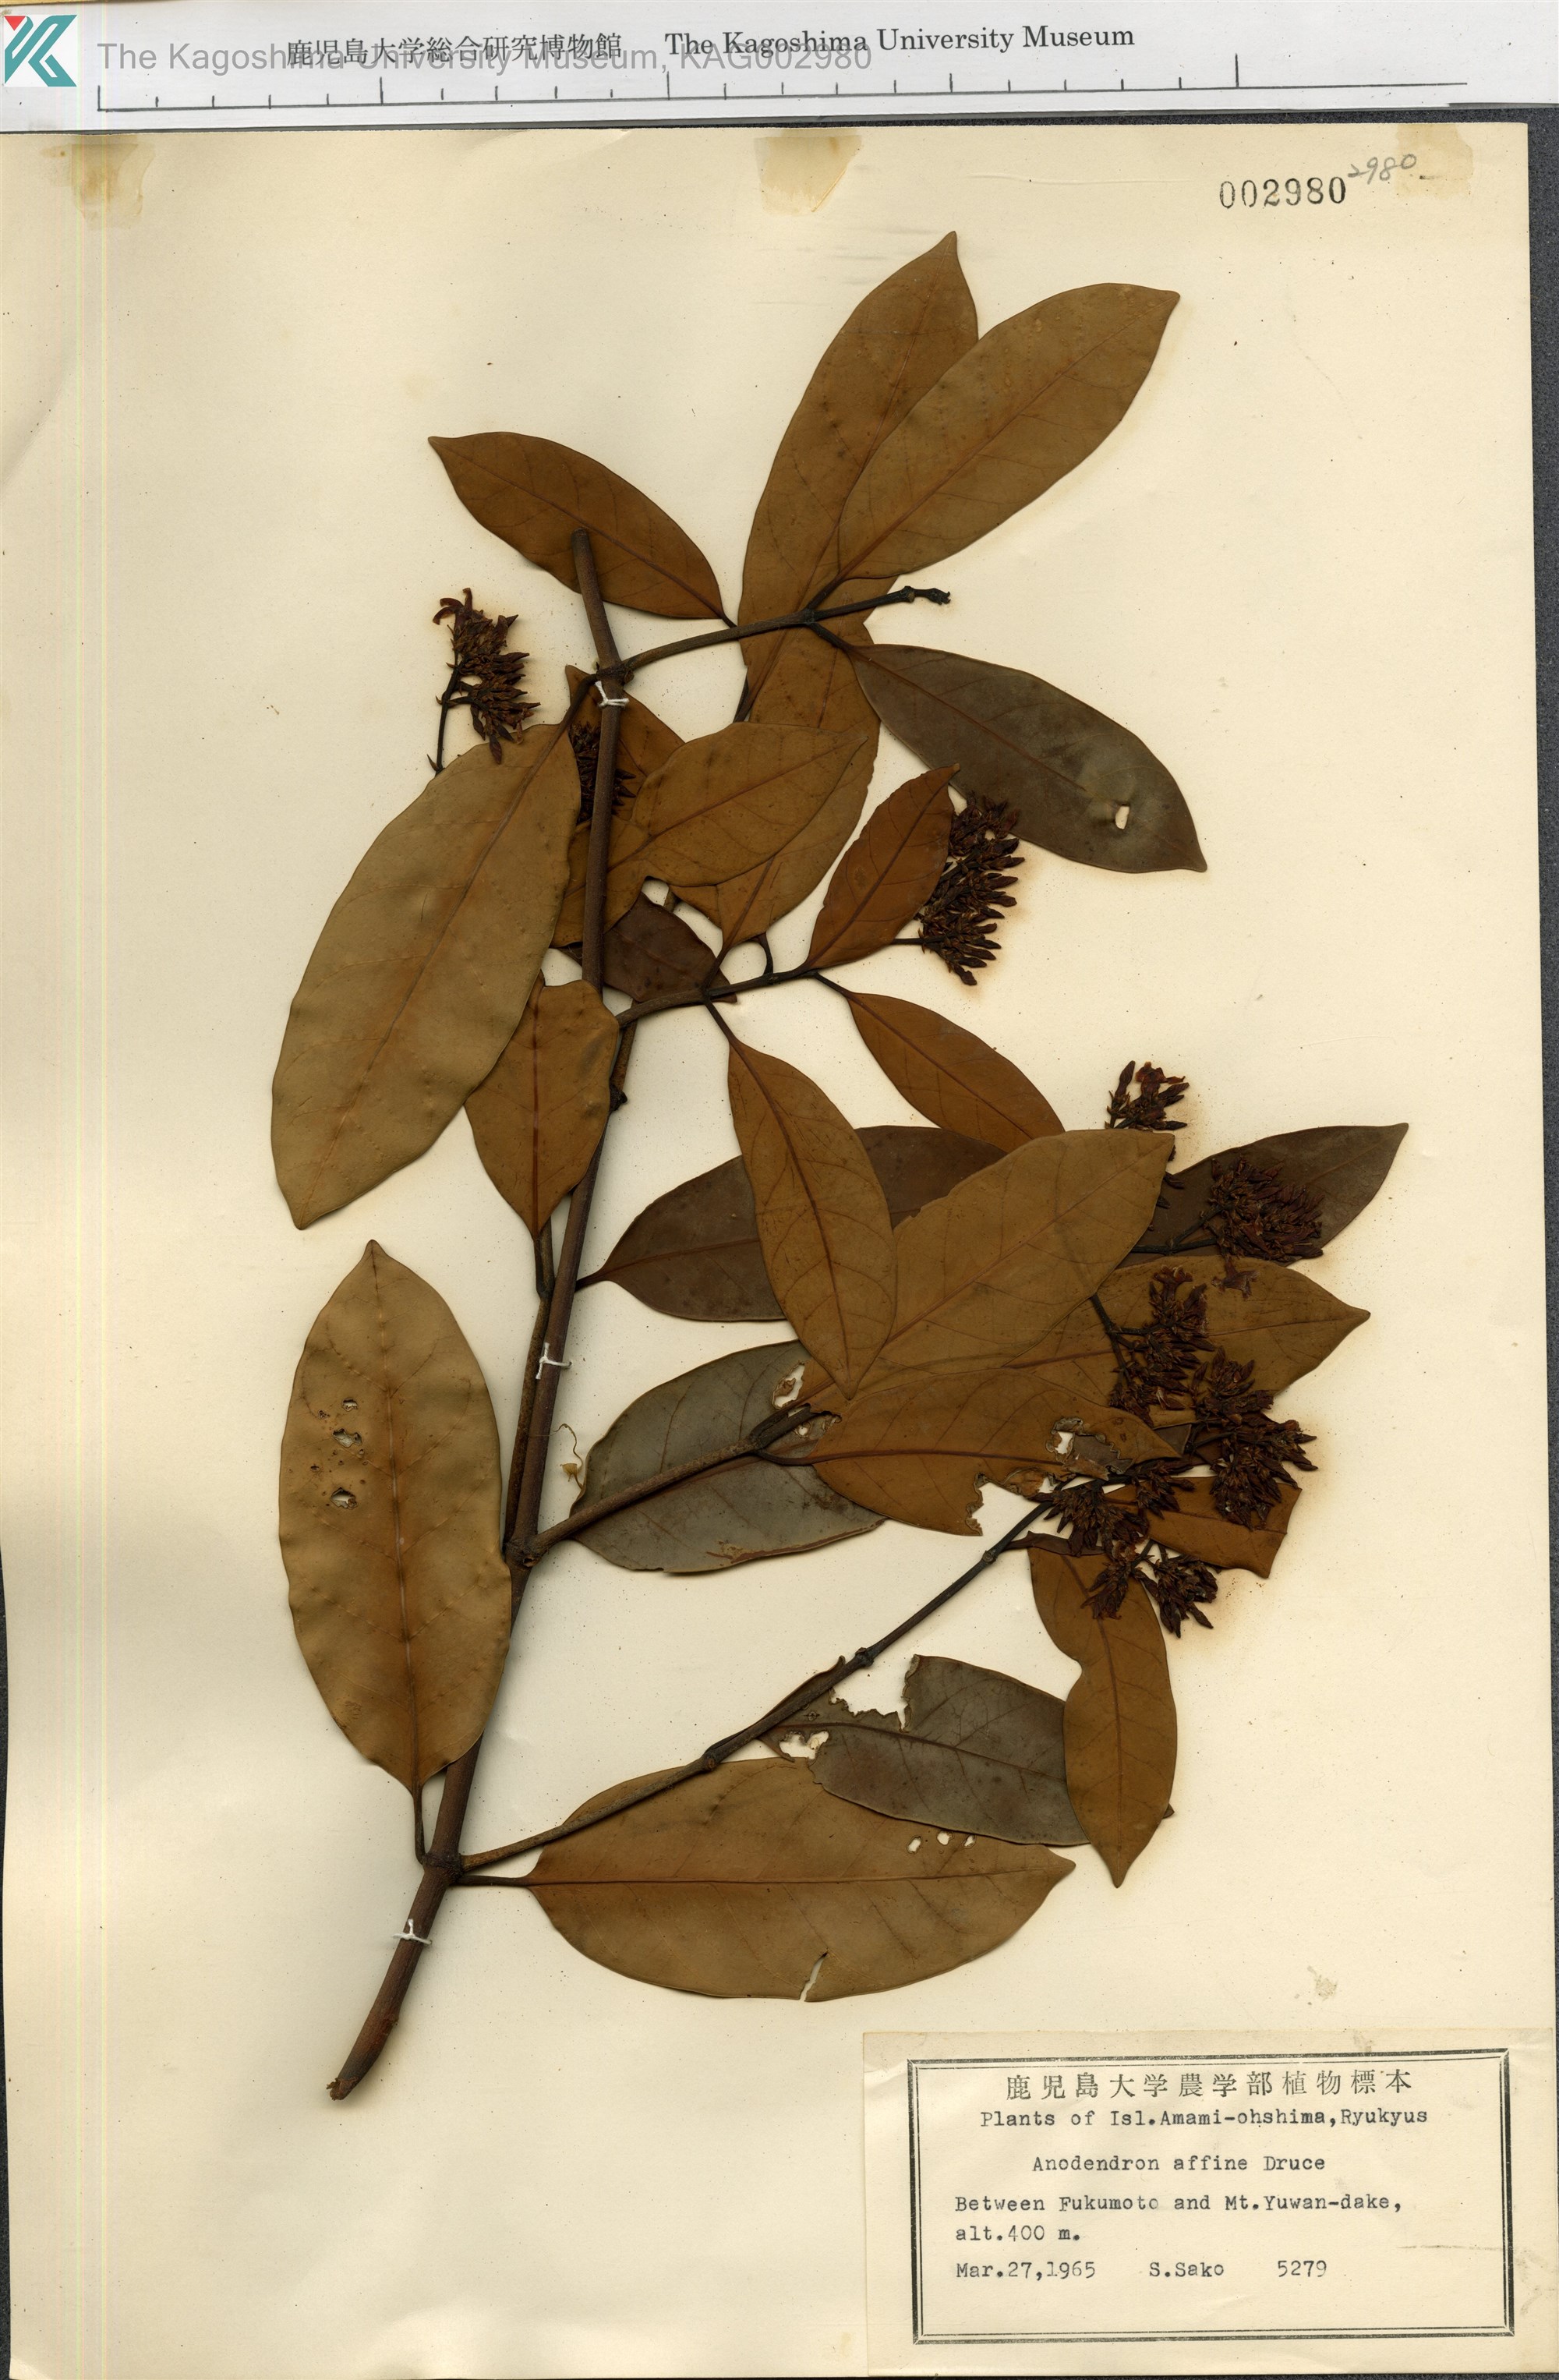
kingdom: Plantae
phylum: Tracheophyta
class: Magnoliopsida
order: Gentianales
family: Apocynaceae
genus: Anodendron
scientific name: Anodendron affine
